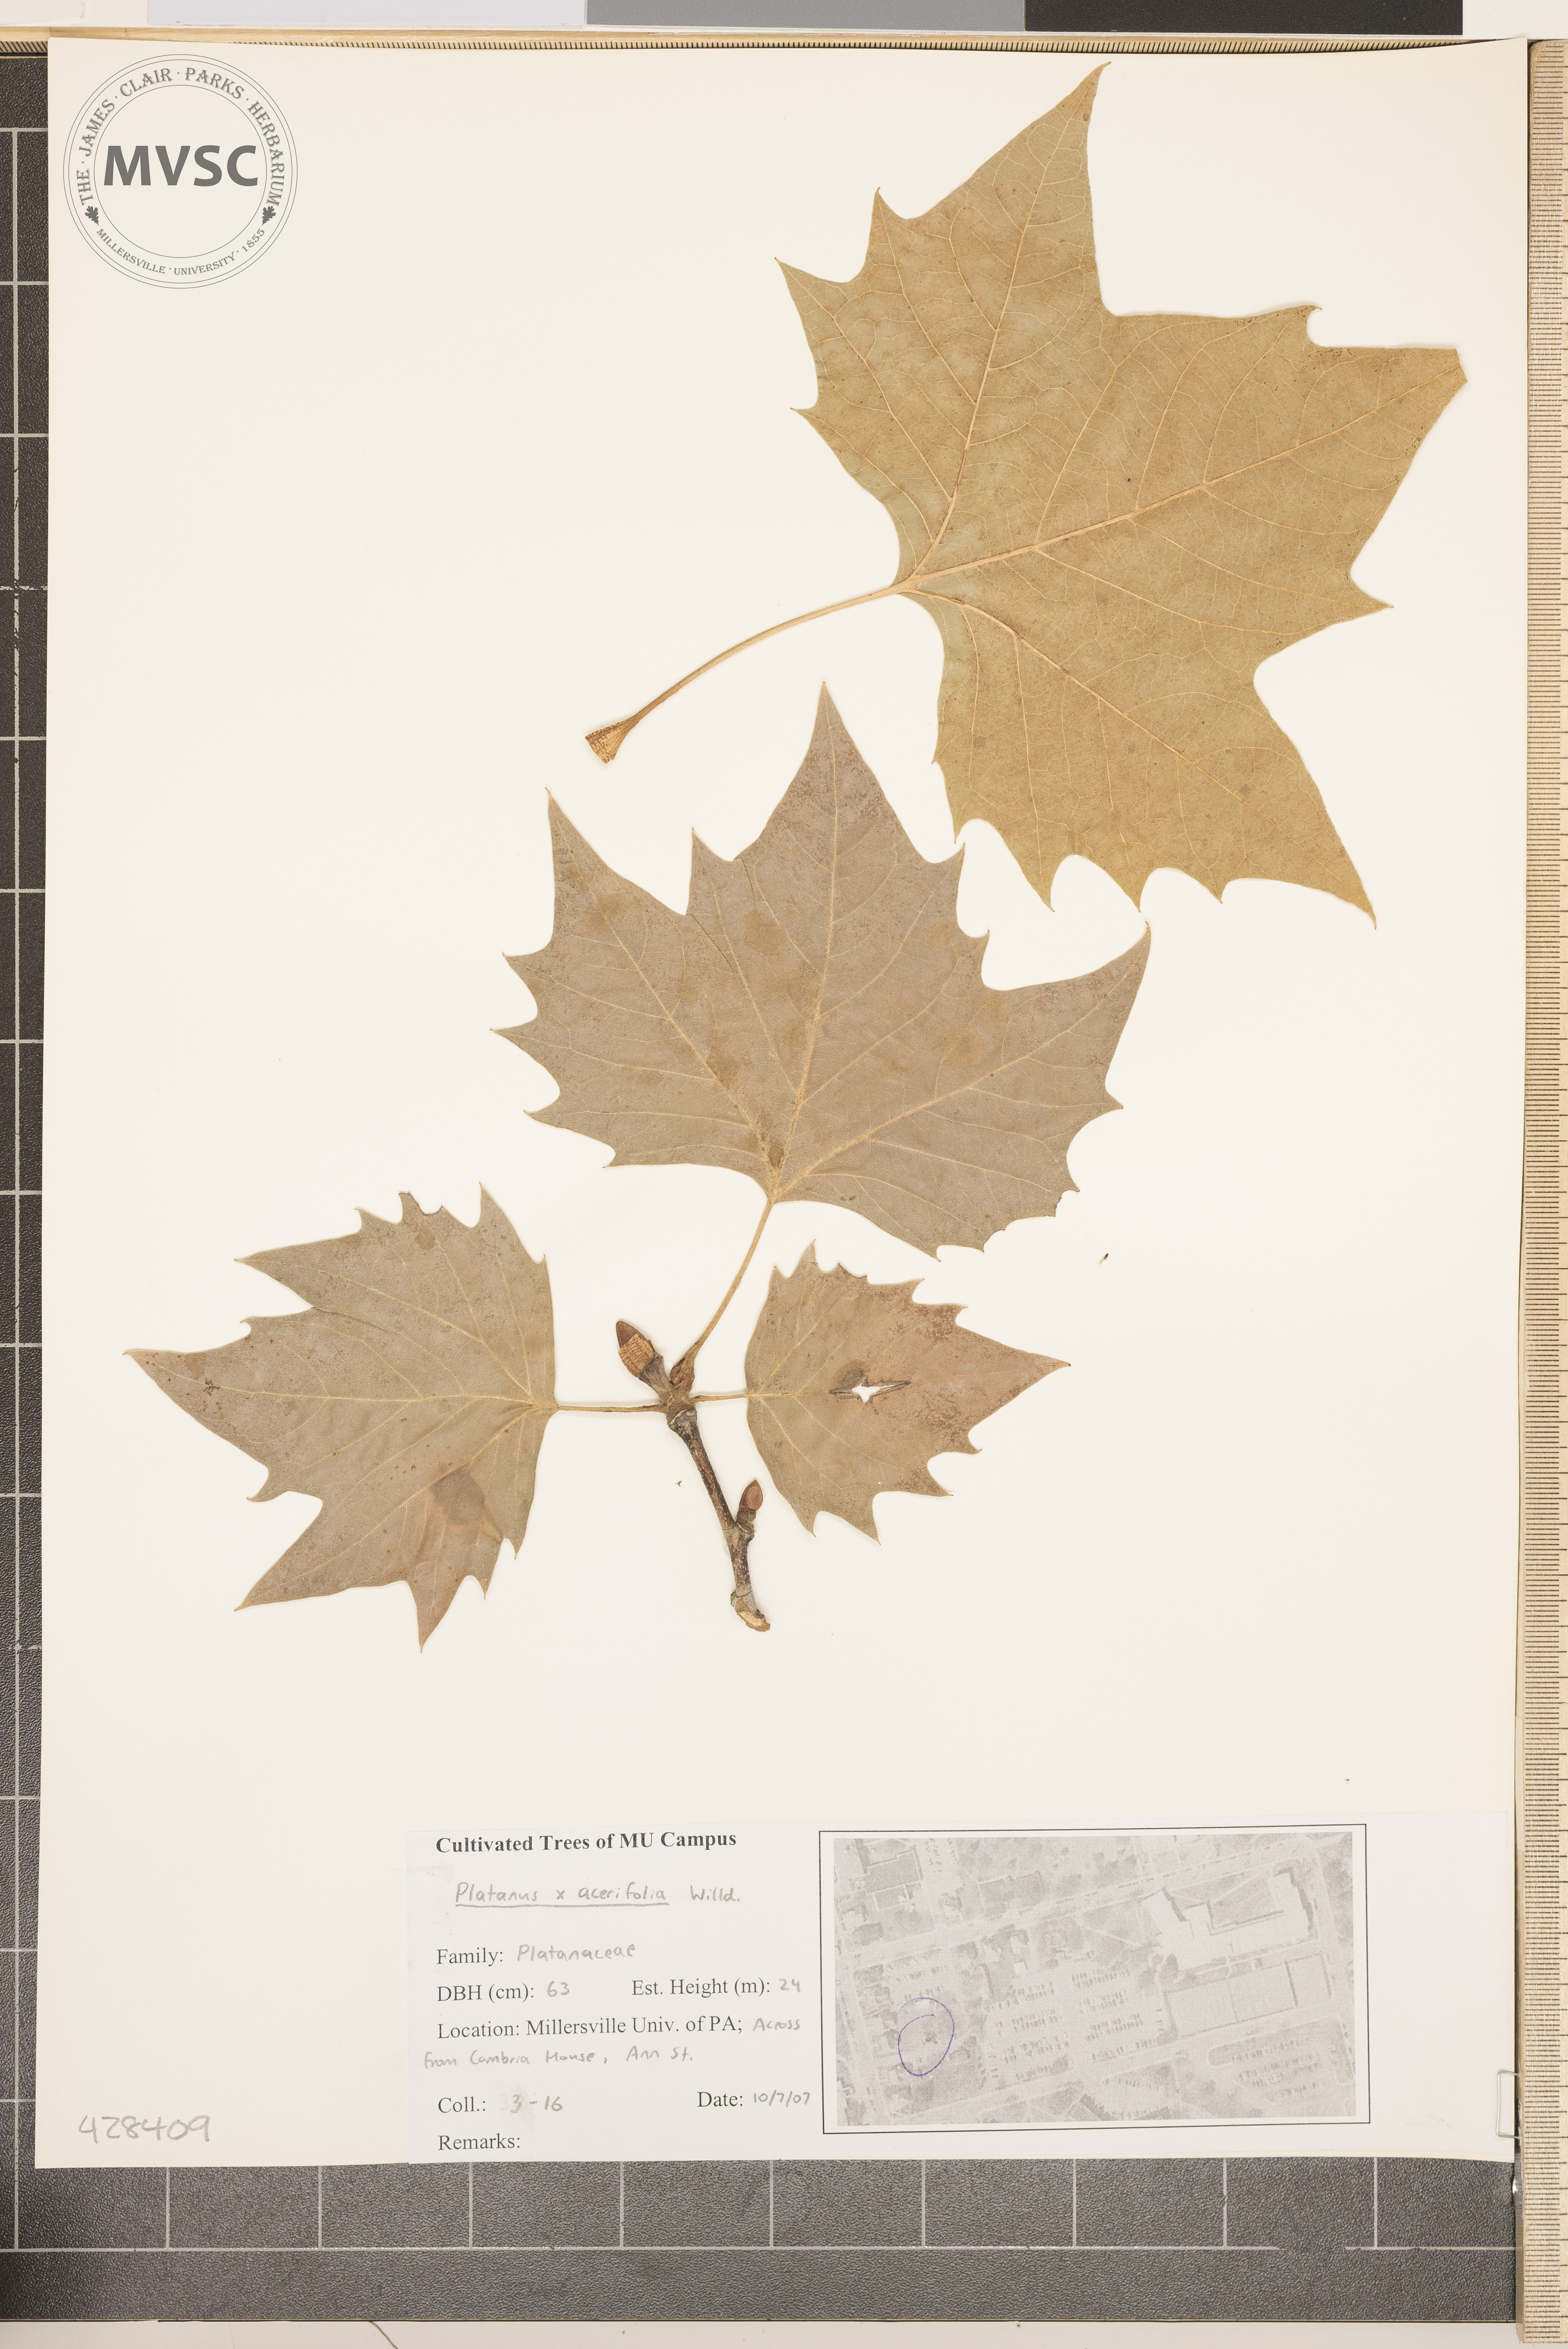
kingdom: Plantae
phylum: Tracheophyta
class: Magnoliopsida
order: Proteales
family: Platanaceae
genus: Platanus
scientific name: Platanus hispanica
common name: London planetree
